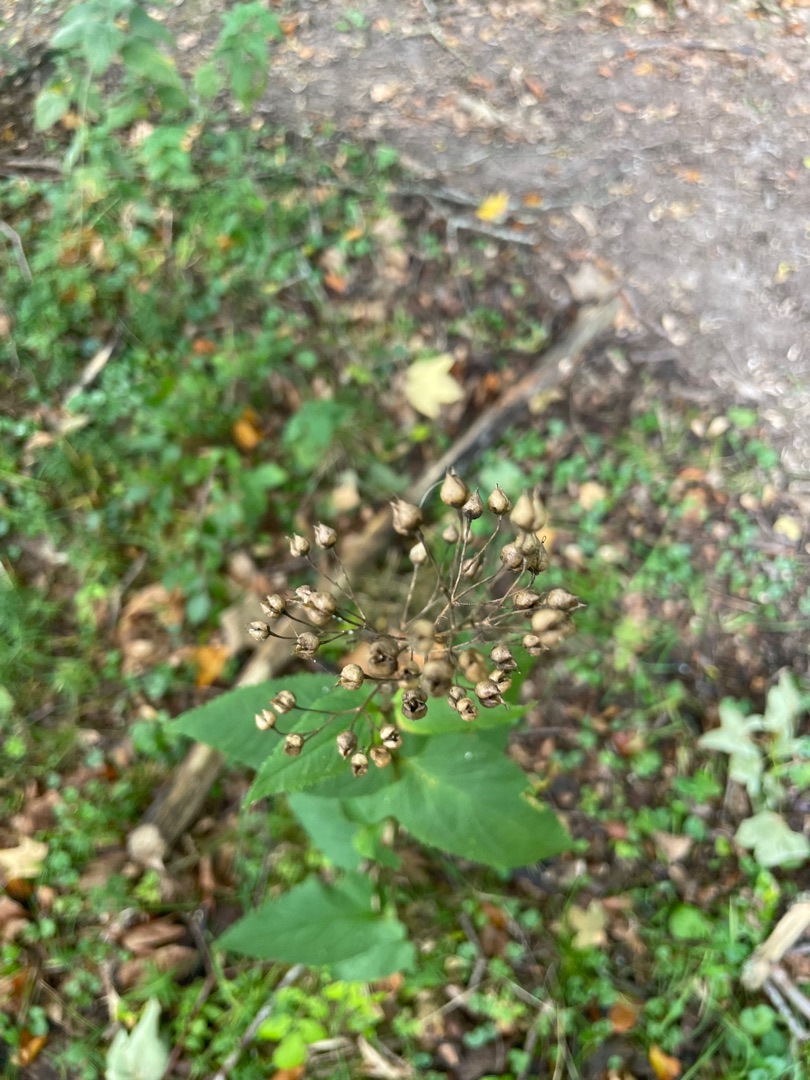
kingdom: Plantae
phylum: Tracheophyta
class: Magnoliopsida
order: Lamiales
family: Scrophulariaceae
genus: Scrophularia
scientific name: Scrophularia nodosa
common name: Knoldet brunrod
